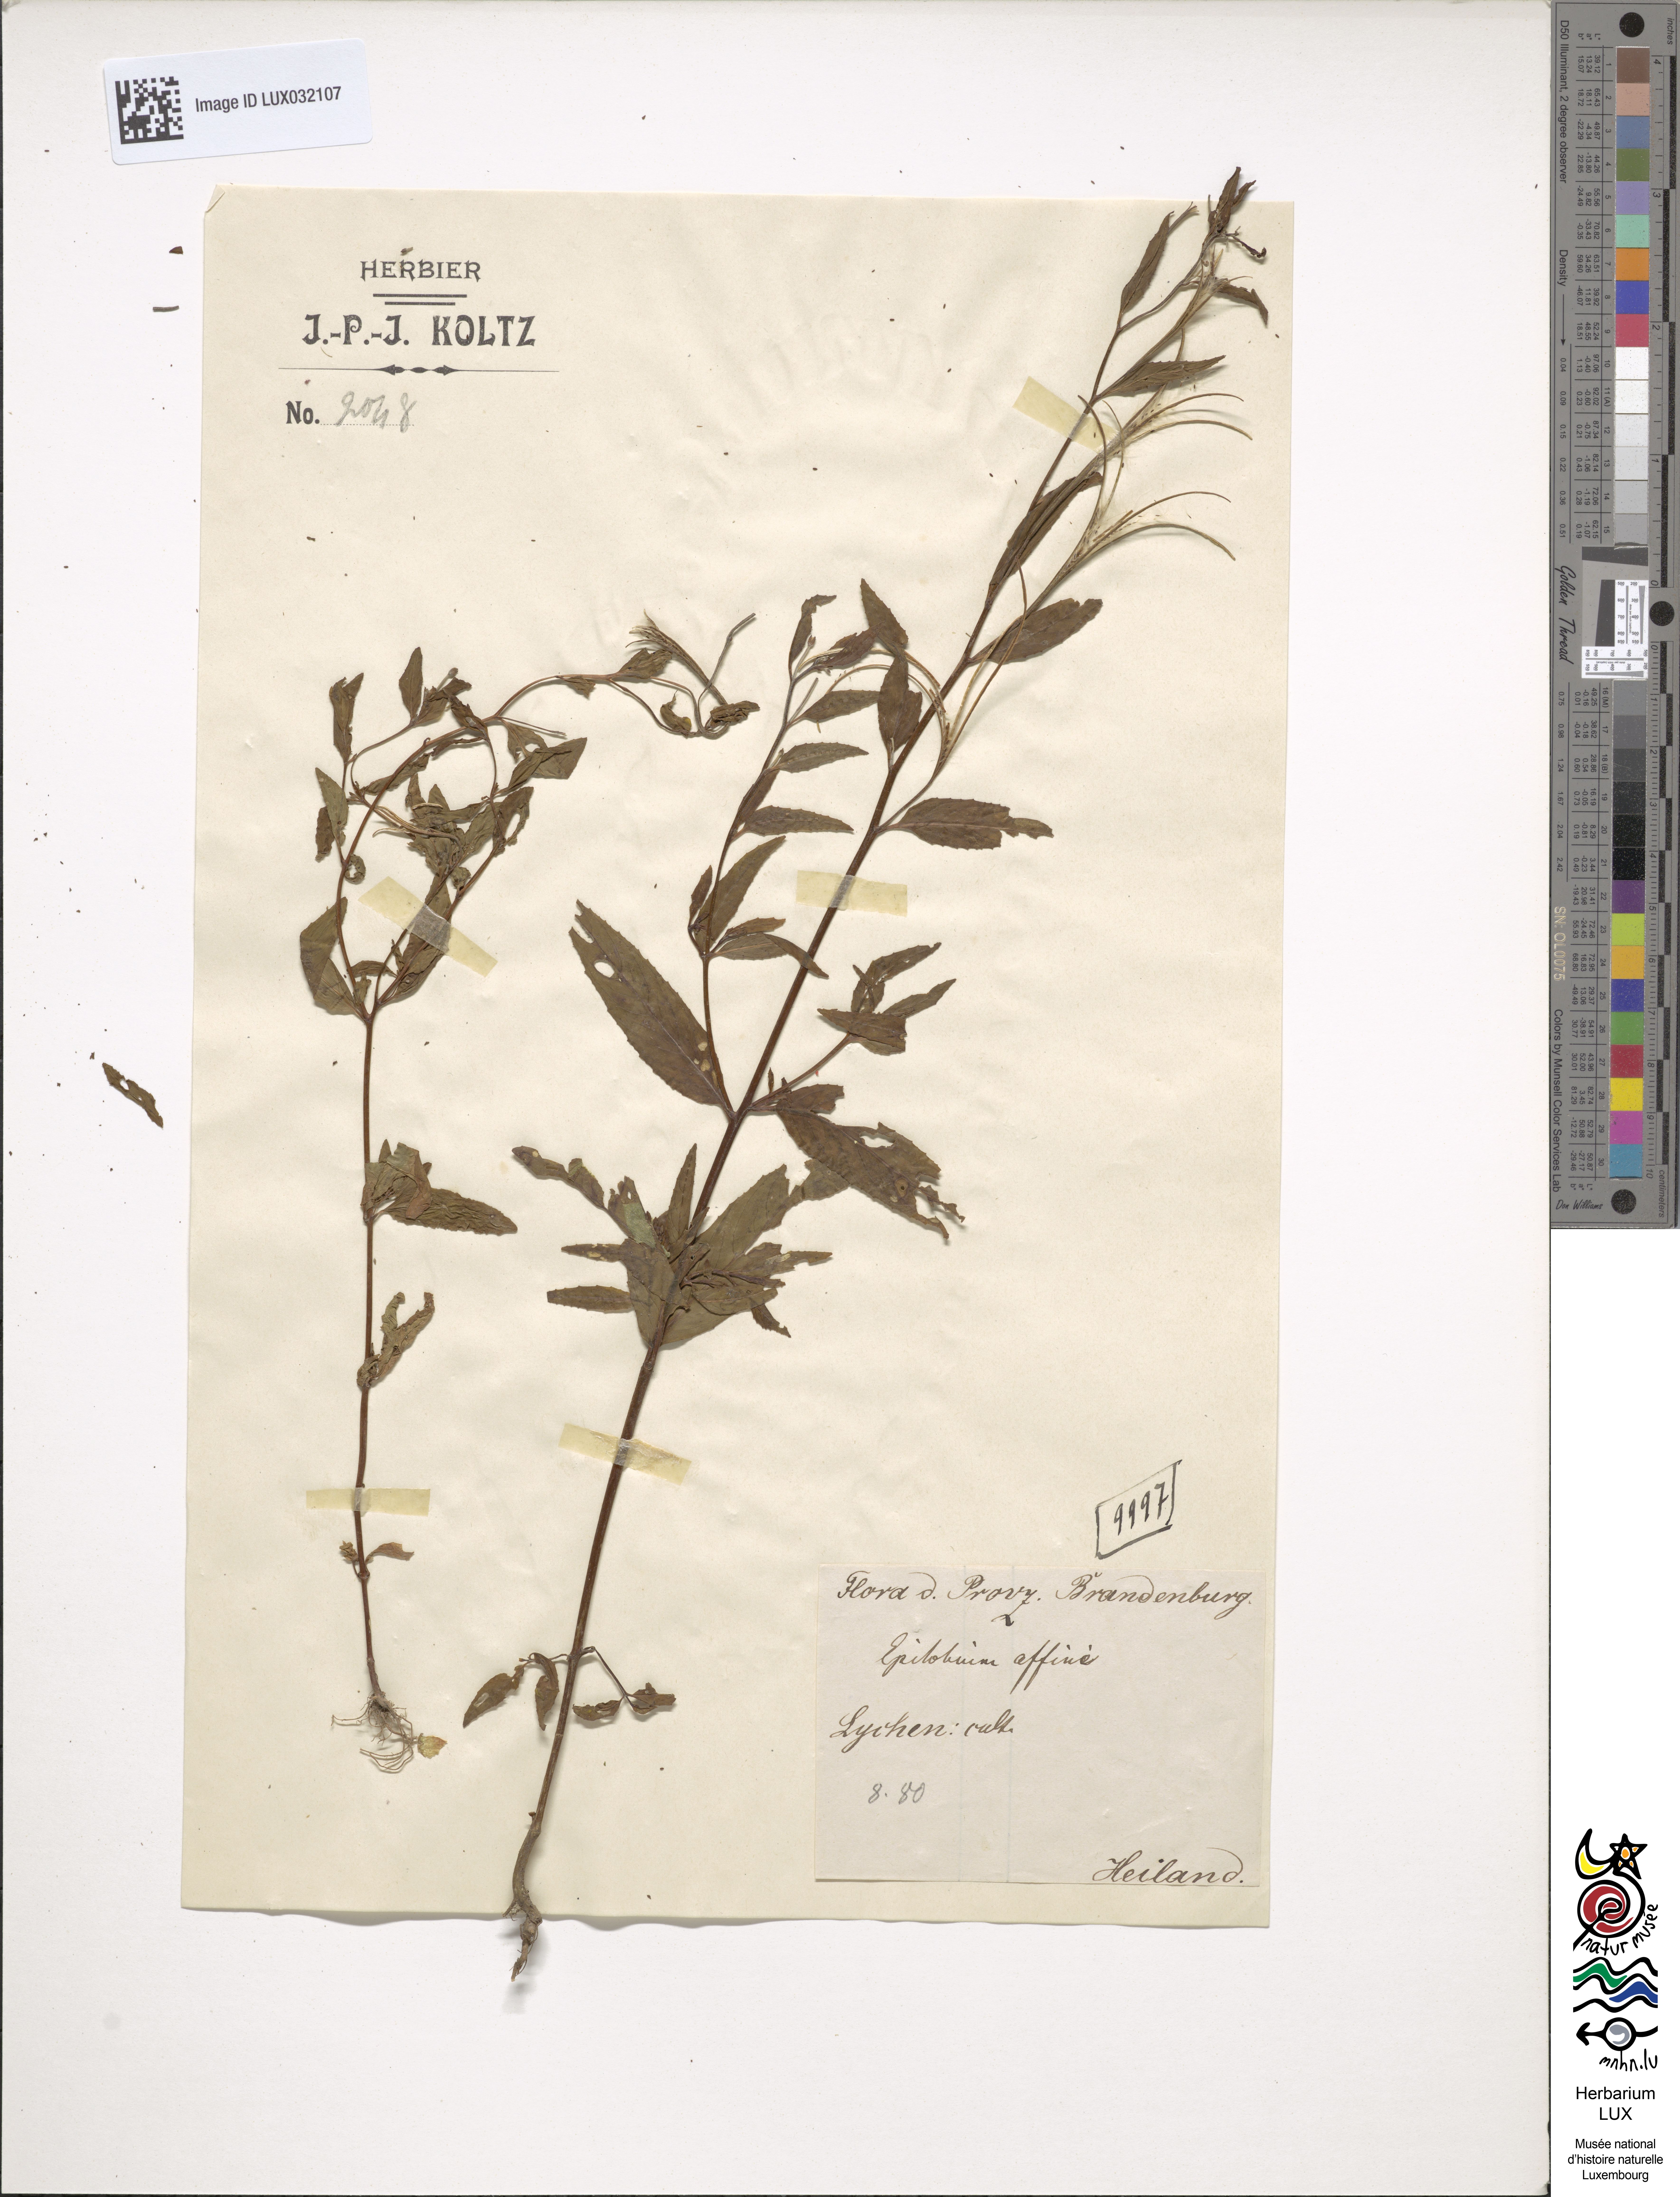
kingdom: Plantae
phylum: Tracheophyta
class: Magnoliopsida
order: Myrtales
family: Onagraceae
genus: Epilobium
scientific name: Epilobium
